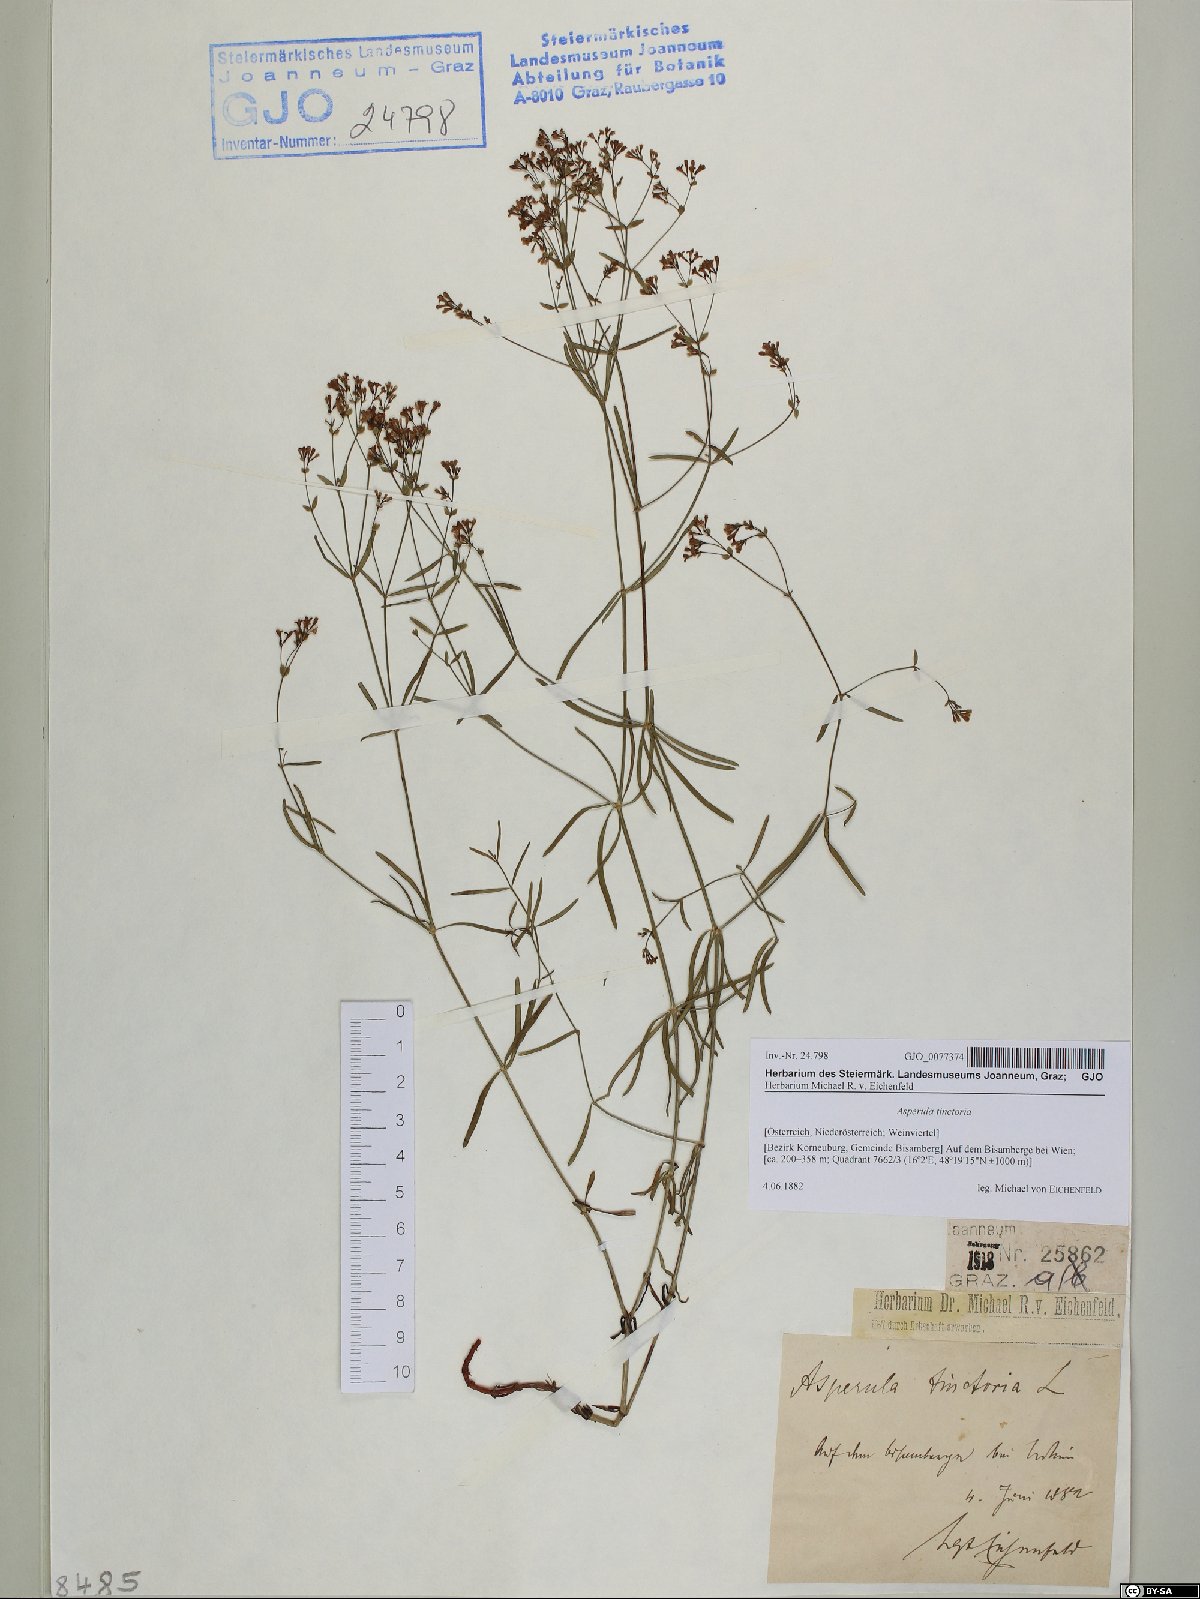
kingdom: Plantae
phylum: Tracheophyta
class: Magnoliopsida
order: Gentianales
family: Rubiaceae
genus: Asperula
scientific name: Asperula tinctoria
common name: Dyer's woodruff
